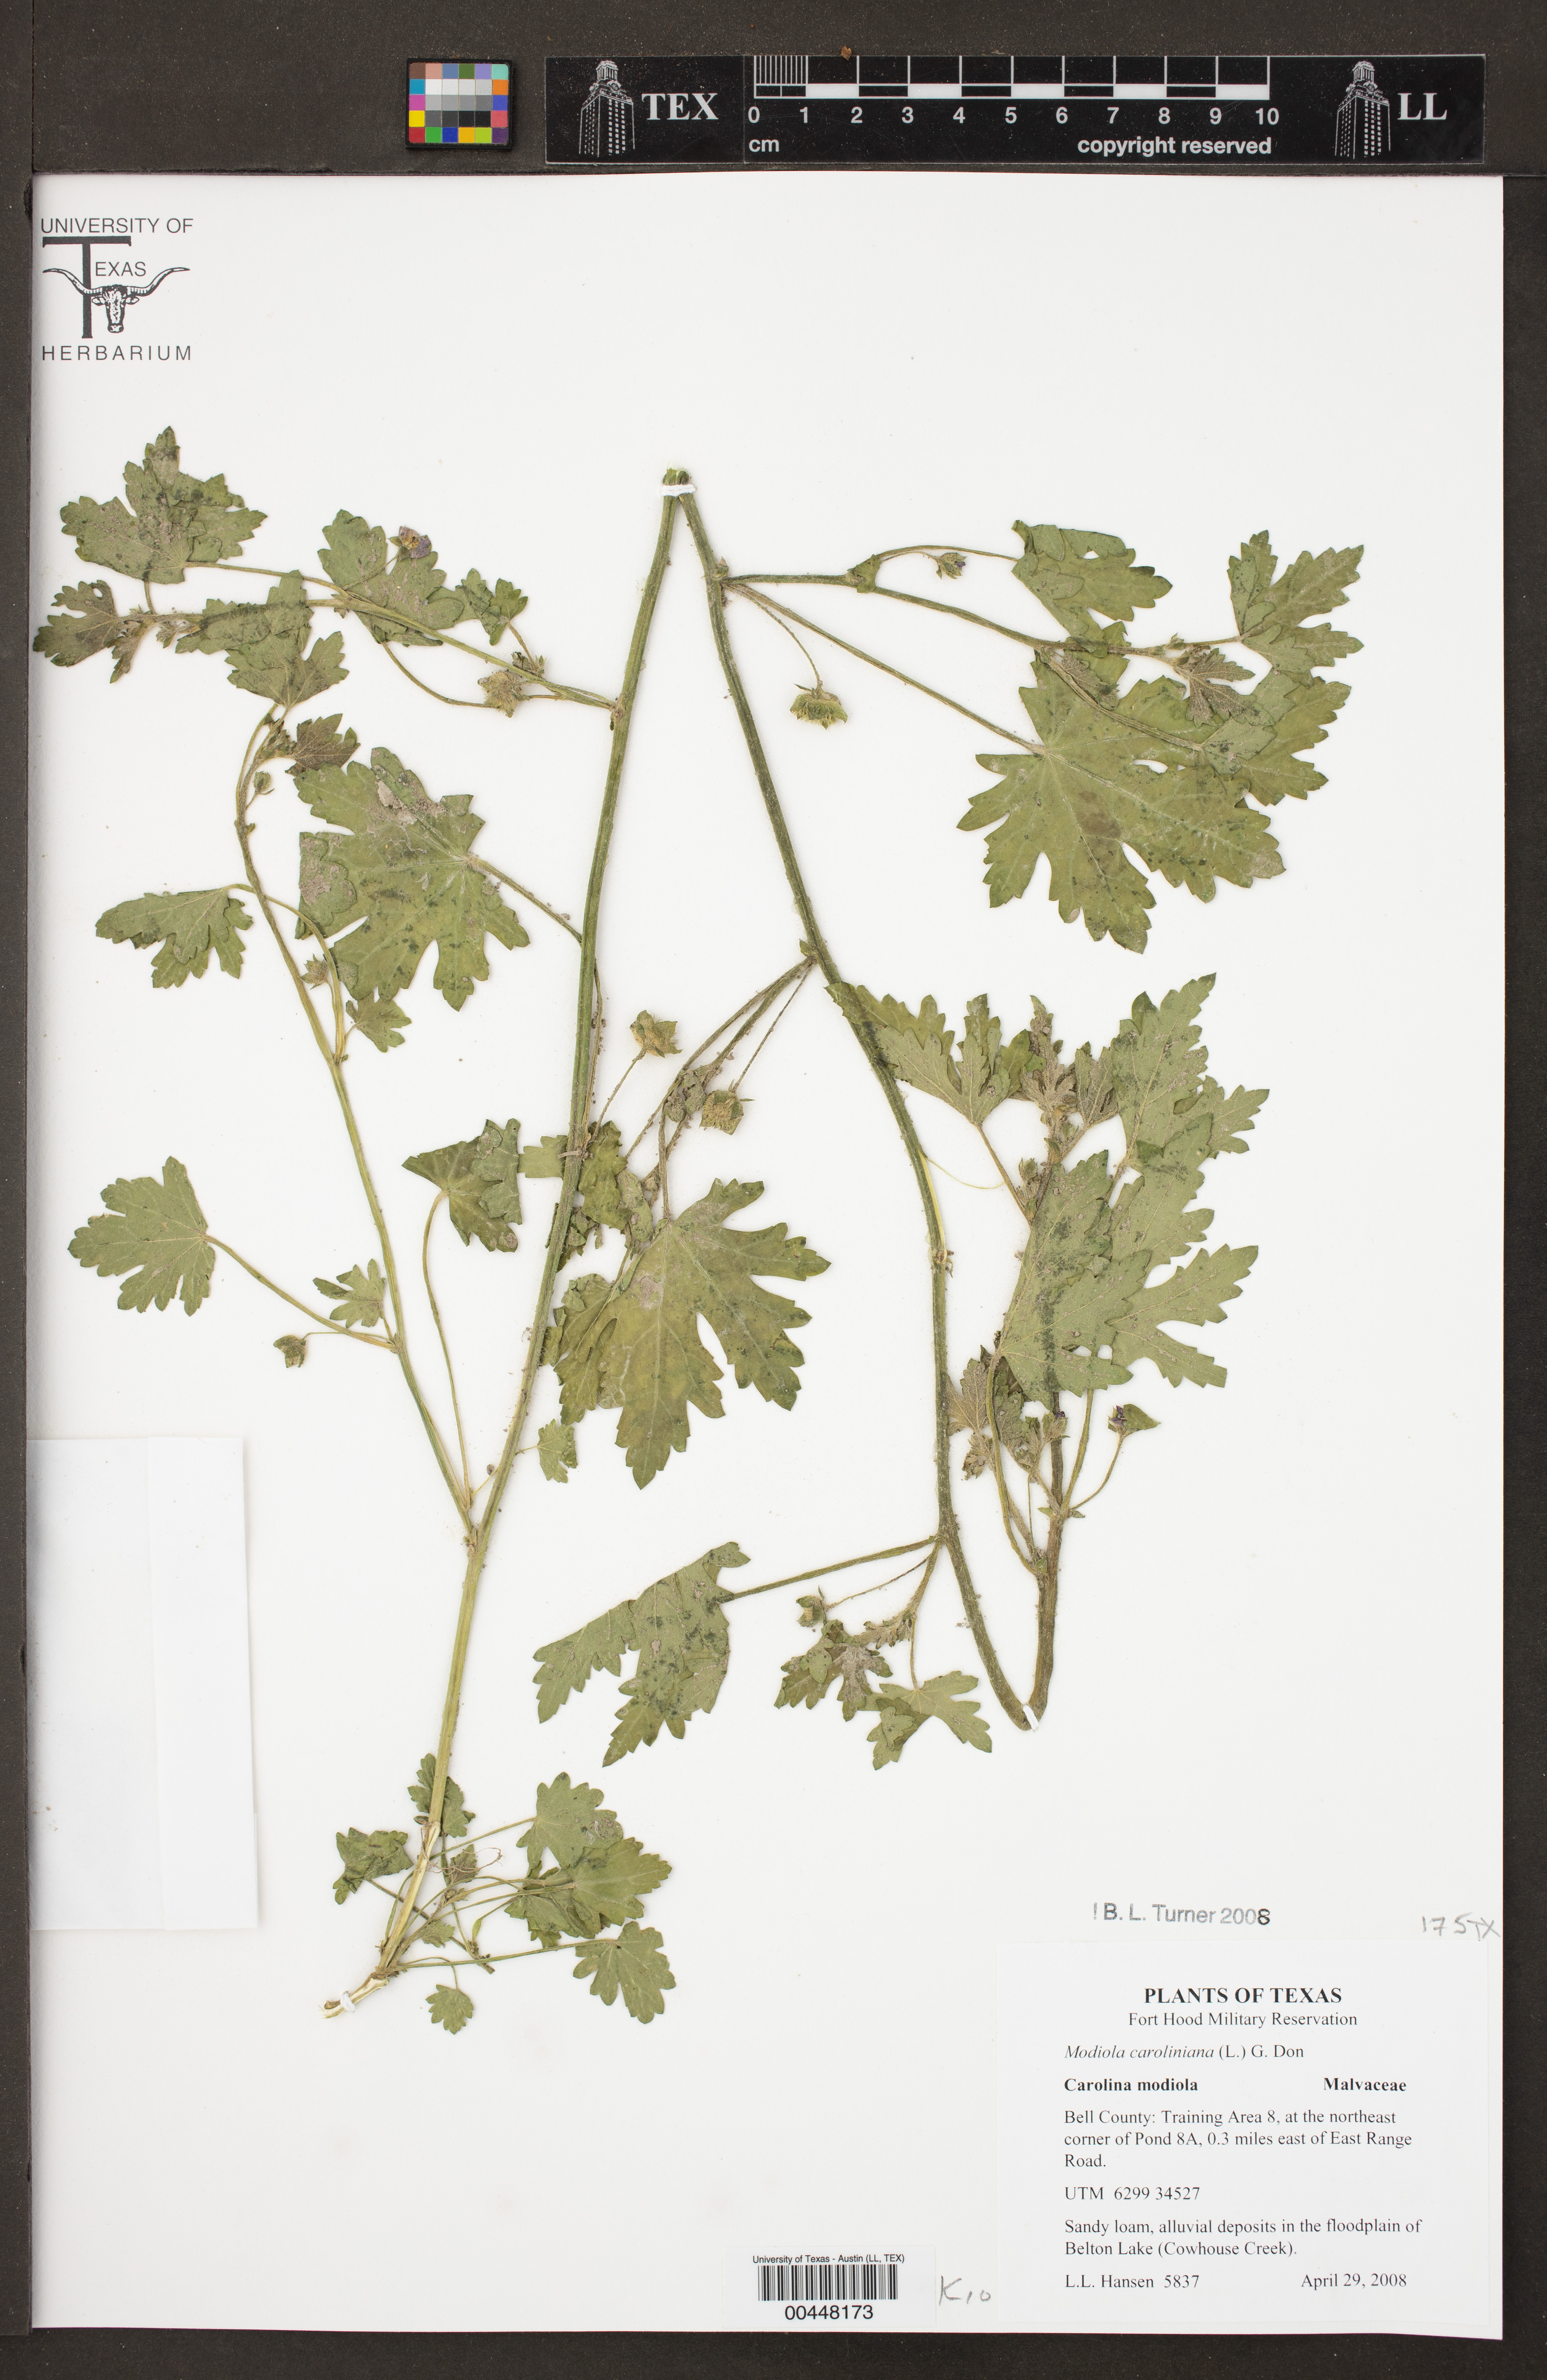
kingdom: Plantae
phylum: Tracheophyta
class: Magnoliopsida
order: Malvales
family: Malvaceae
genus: Modiola
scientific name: Modiola caroliniana
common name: Carolina bristlemallow
